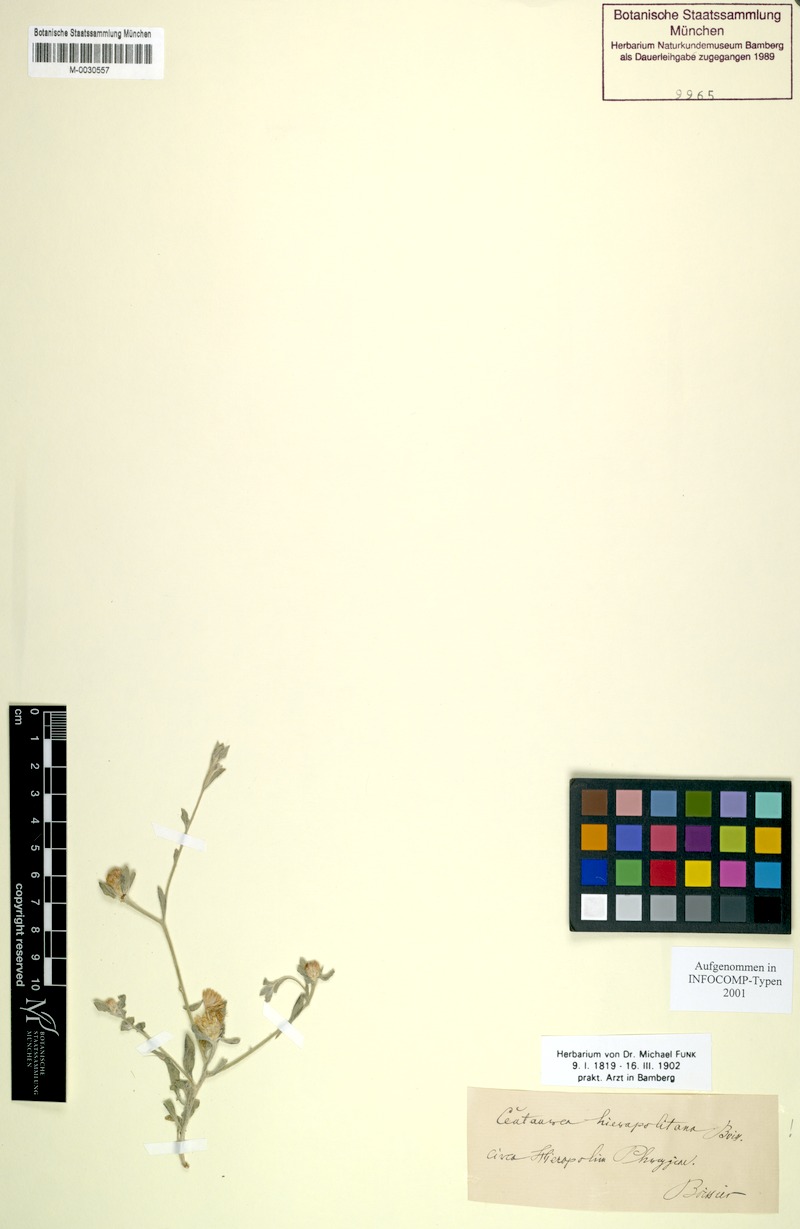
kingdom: Plantae
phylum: Tracheophyta
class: Magnoliopsida
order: Asterales
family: Asteraceae
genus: Centaurea
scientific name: Centaurea hierapolitana
